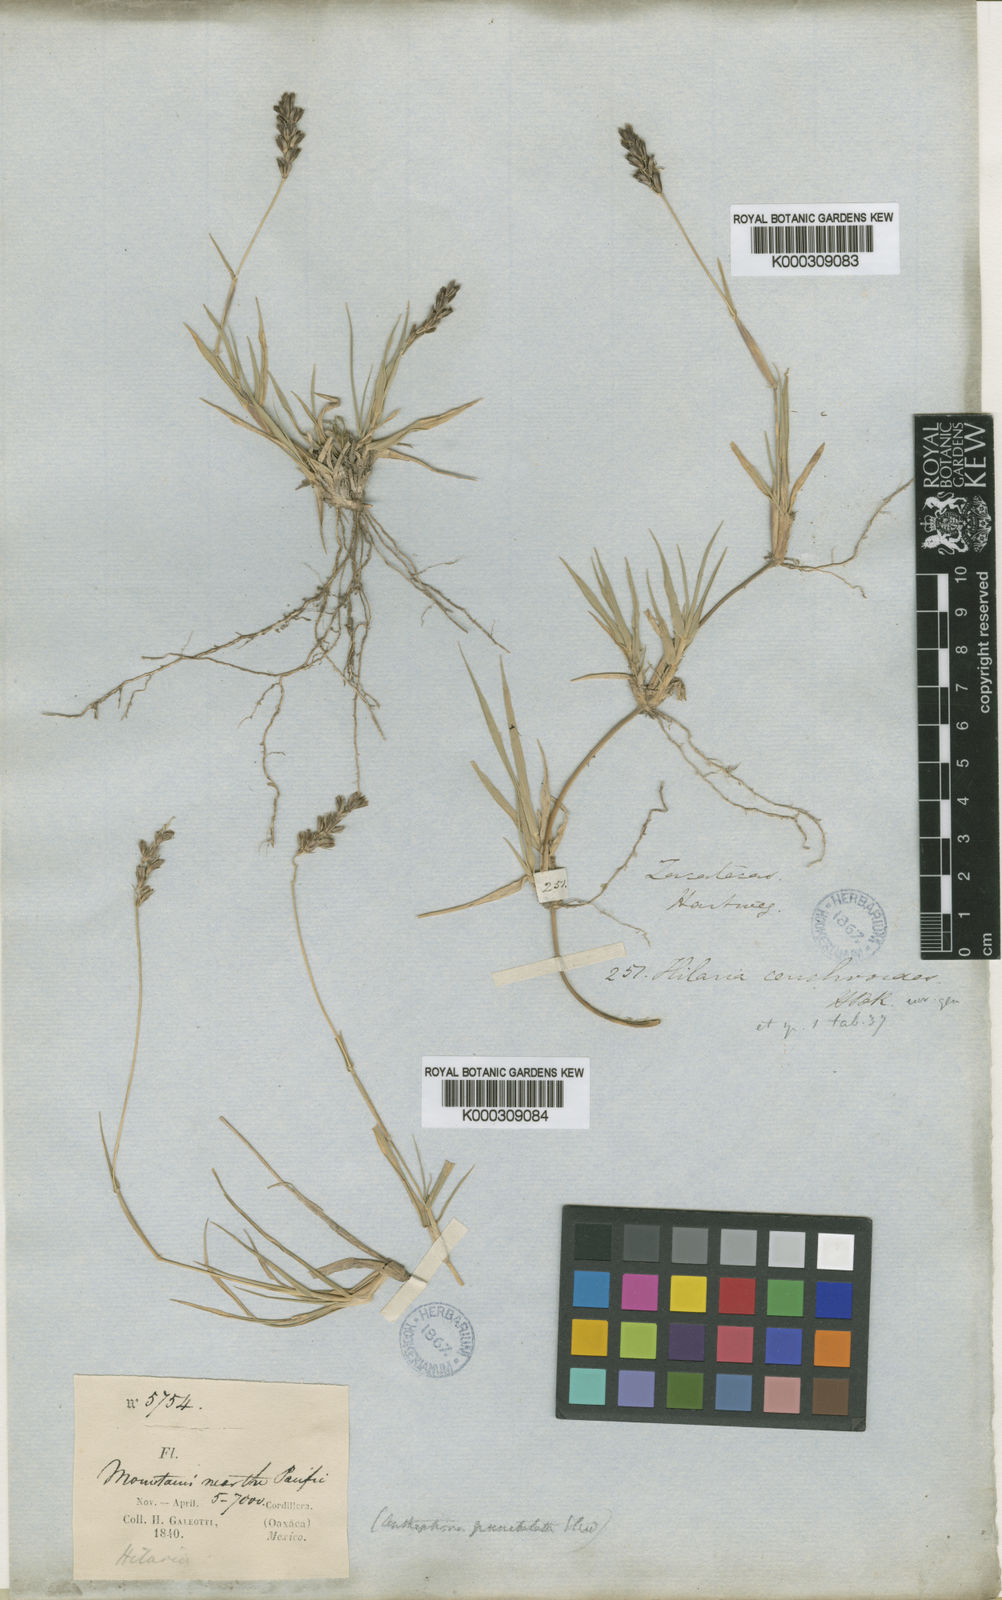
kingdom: Plantae
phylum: Tracheophyta
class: Liliopsida
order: Poales
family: Poaceae
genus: Hilaria
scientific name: Hilaria
